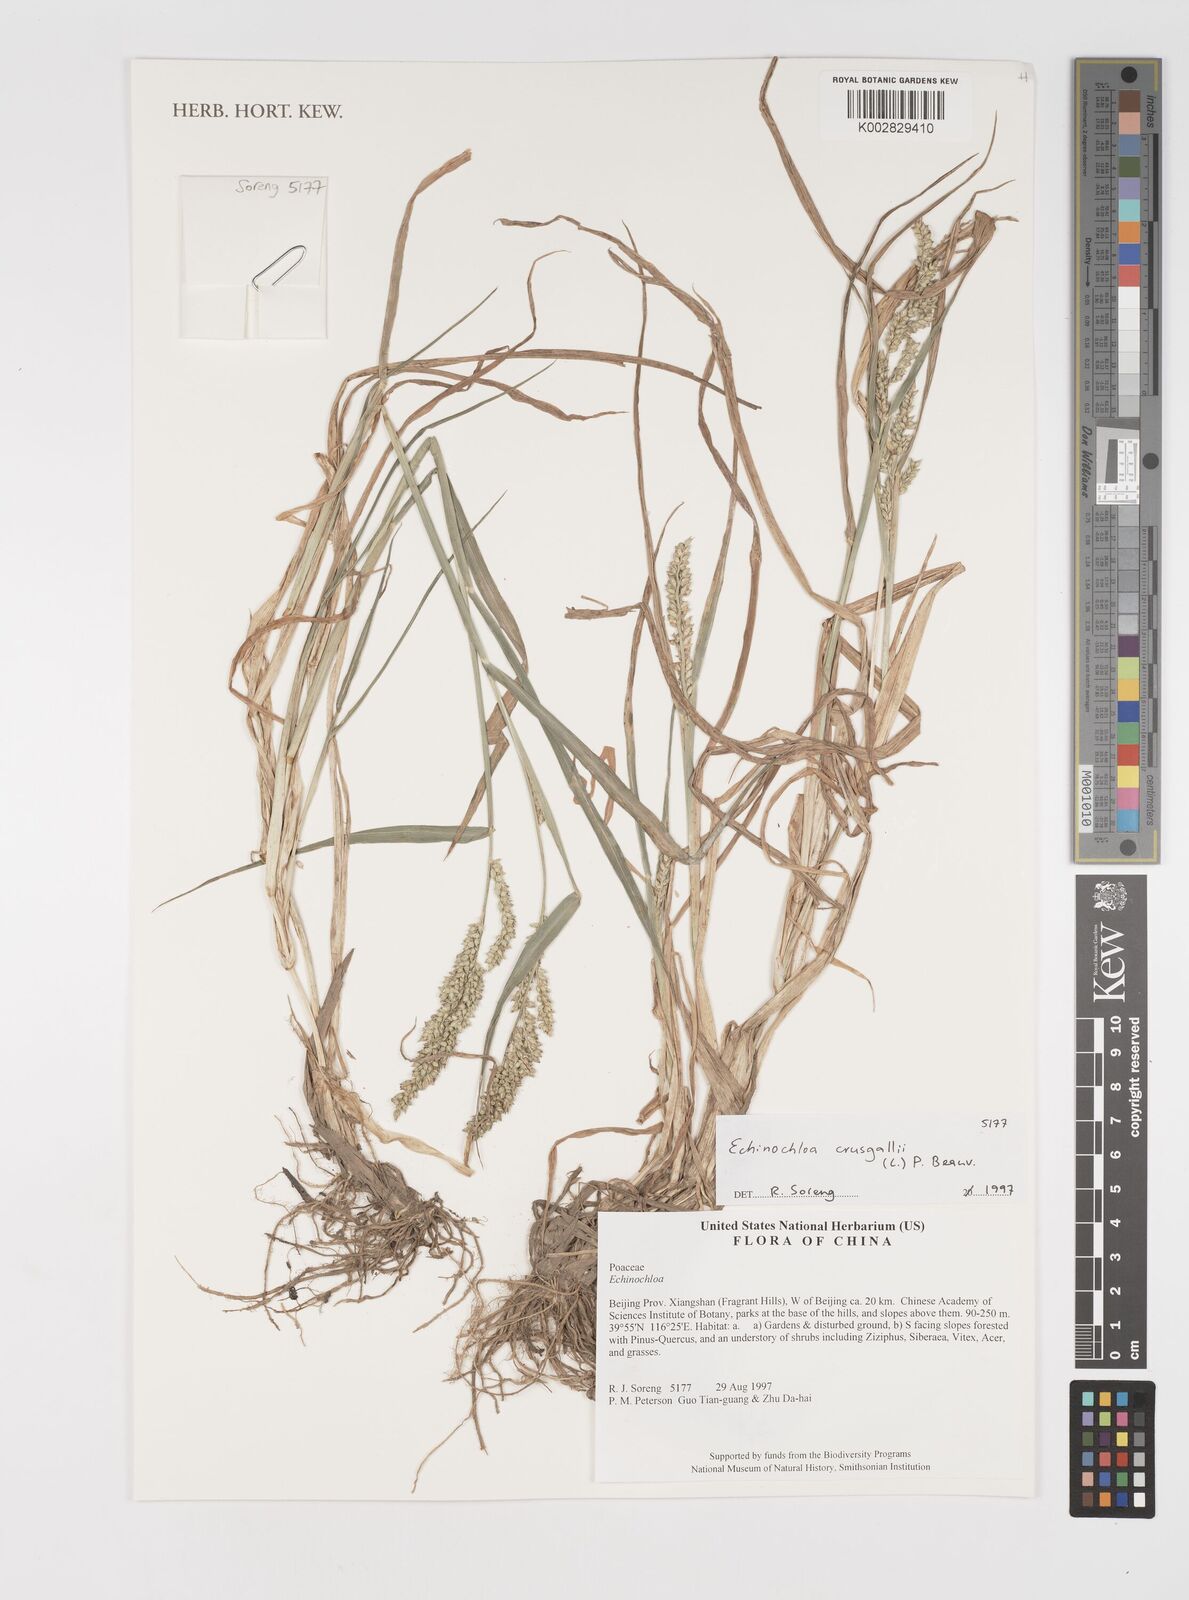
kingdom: Plantae
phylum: Tracheophyta
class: Liliopsida
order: Poales
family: Poaceae
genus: Echinochloa
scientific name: Echinochloa crus-galli
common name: Cockspur
